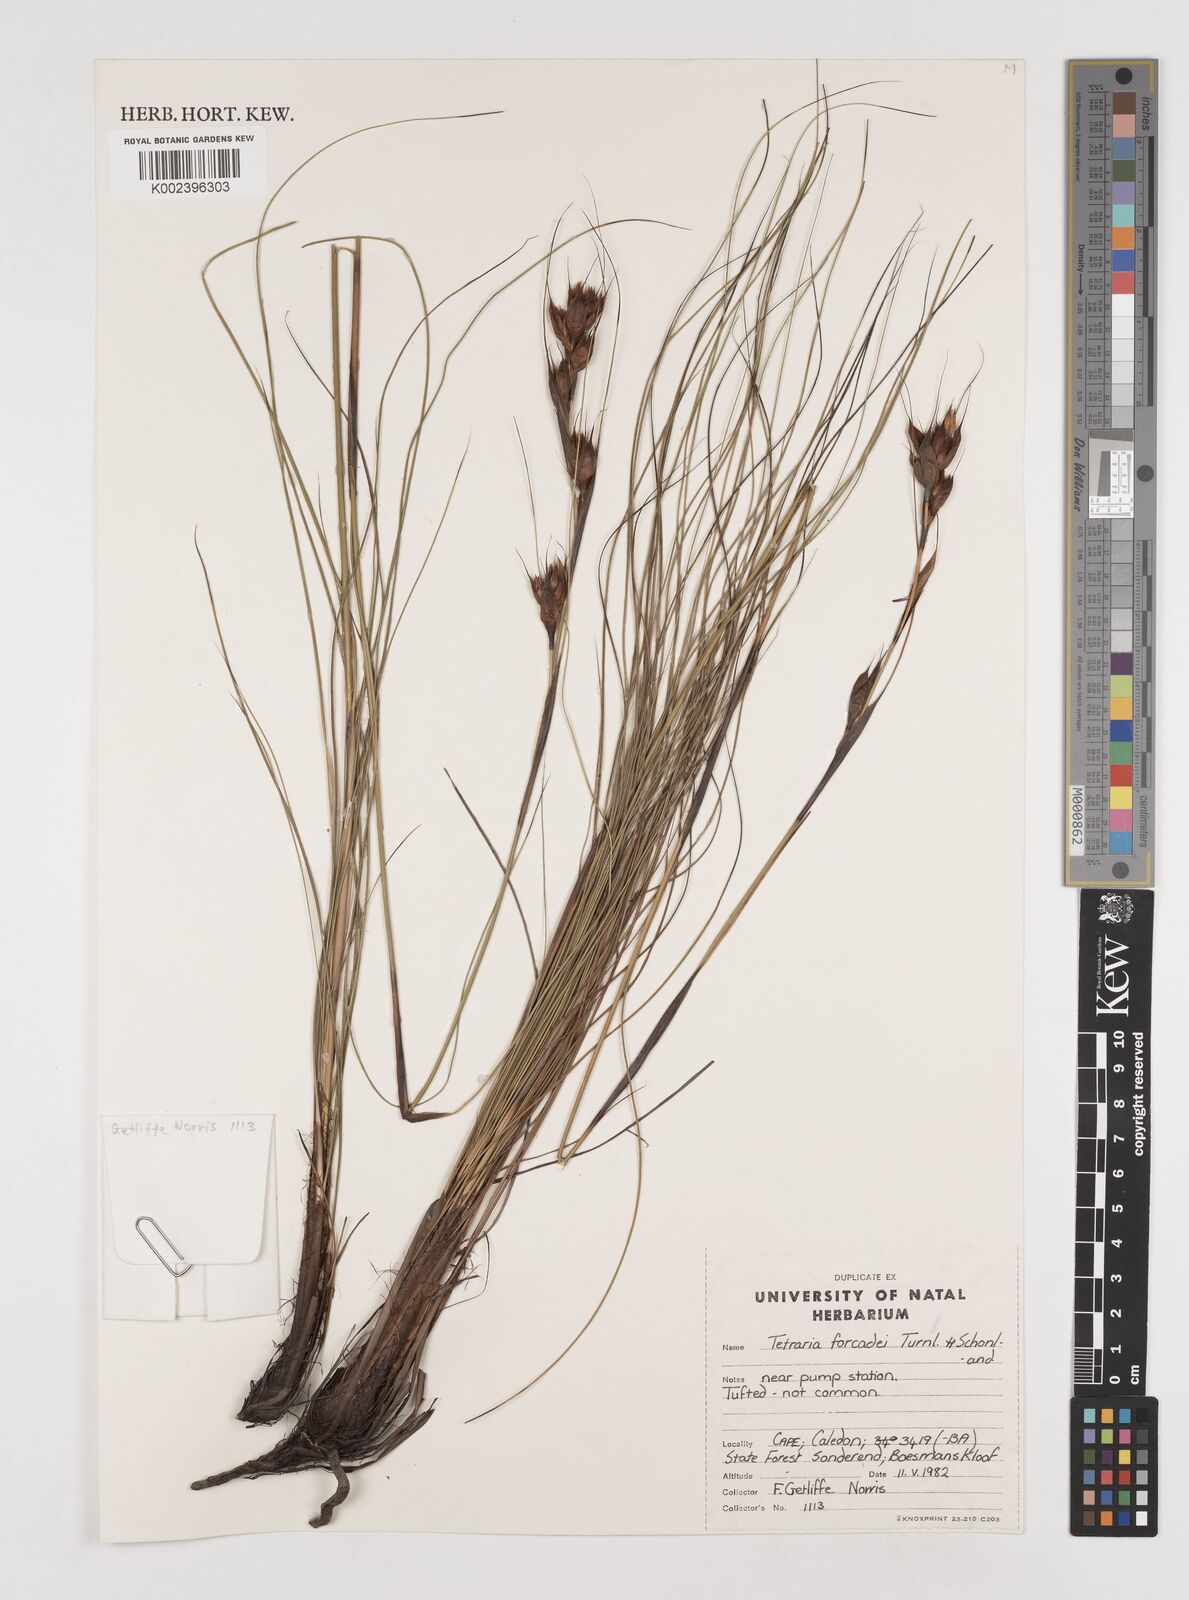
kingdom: Plantae
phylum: Tracheophyta
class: Liliopsida
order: Poales
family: Cyperaceae
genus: Tetraria
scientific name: Tetraria fourcadei
